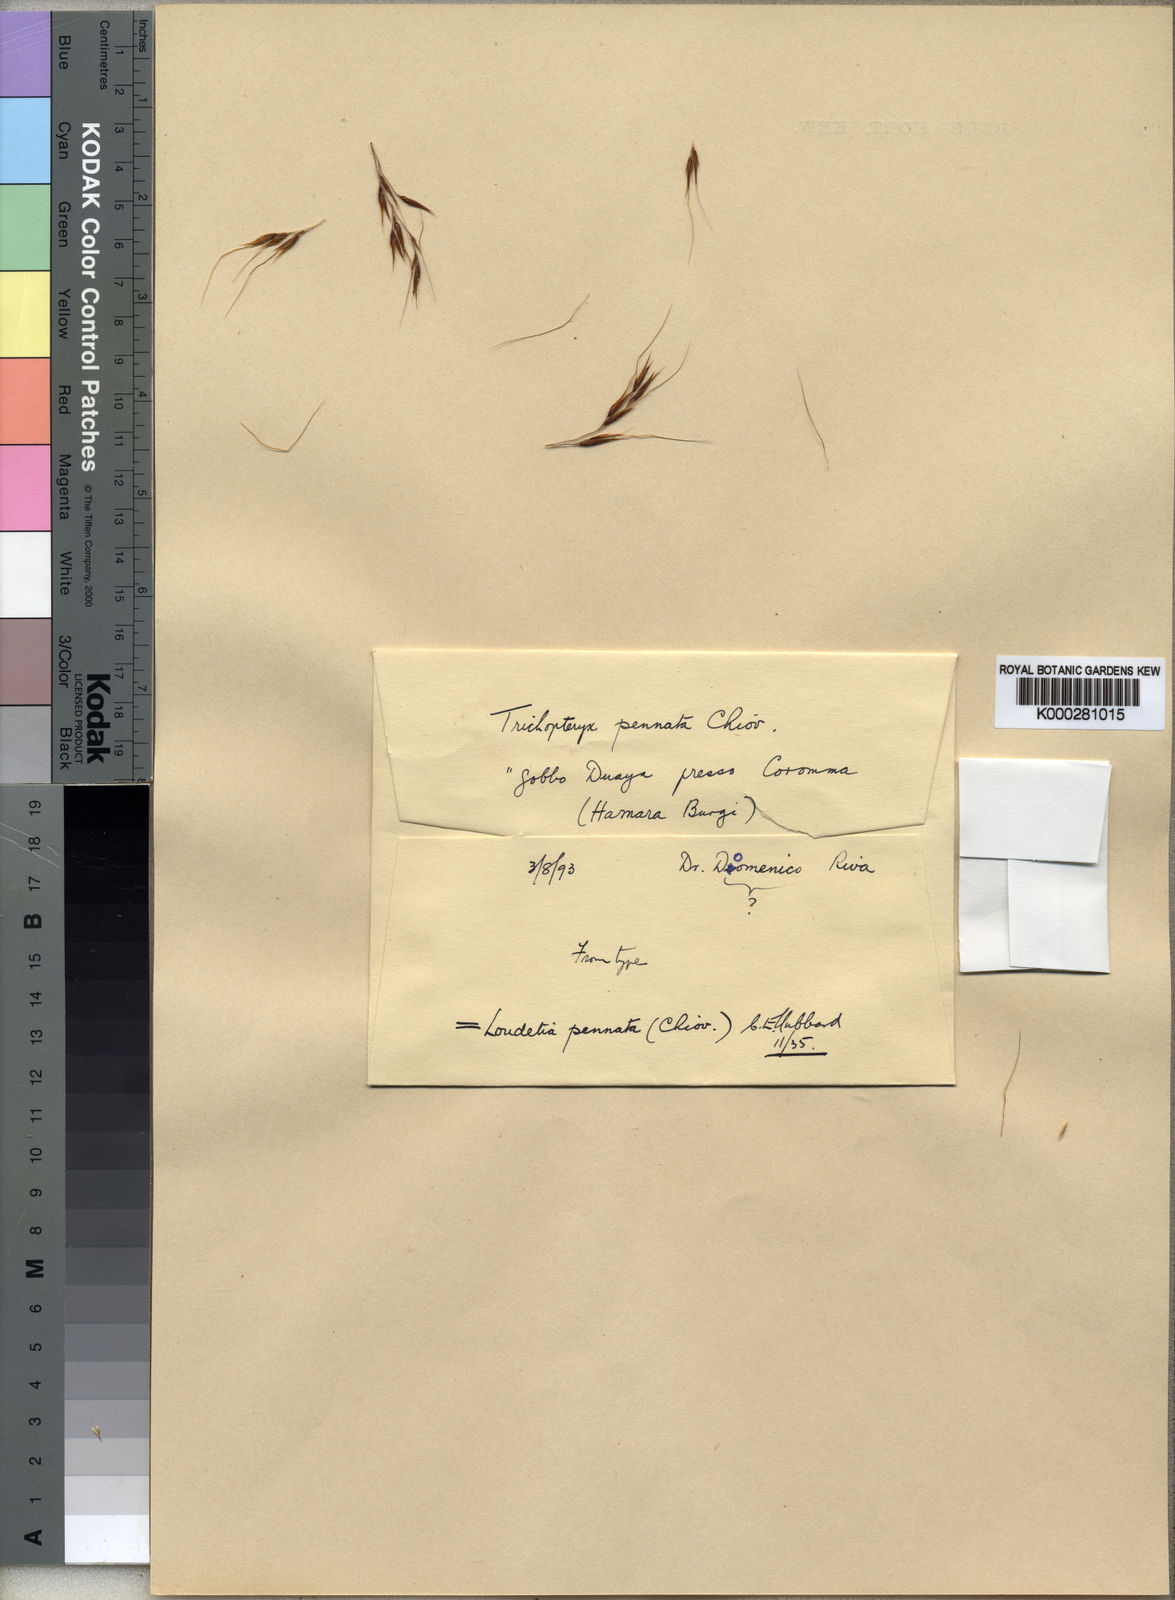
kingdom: Plantae
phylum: Tracheophyta
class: Liliopsida
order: Poales
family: Poaceae
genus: Loudetia
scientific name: Loudetia flavida
